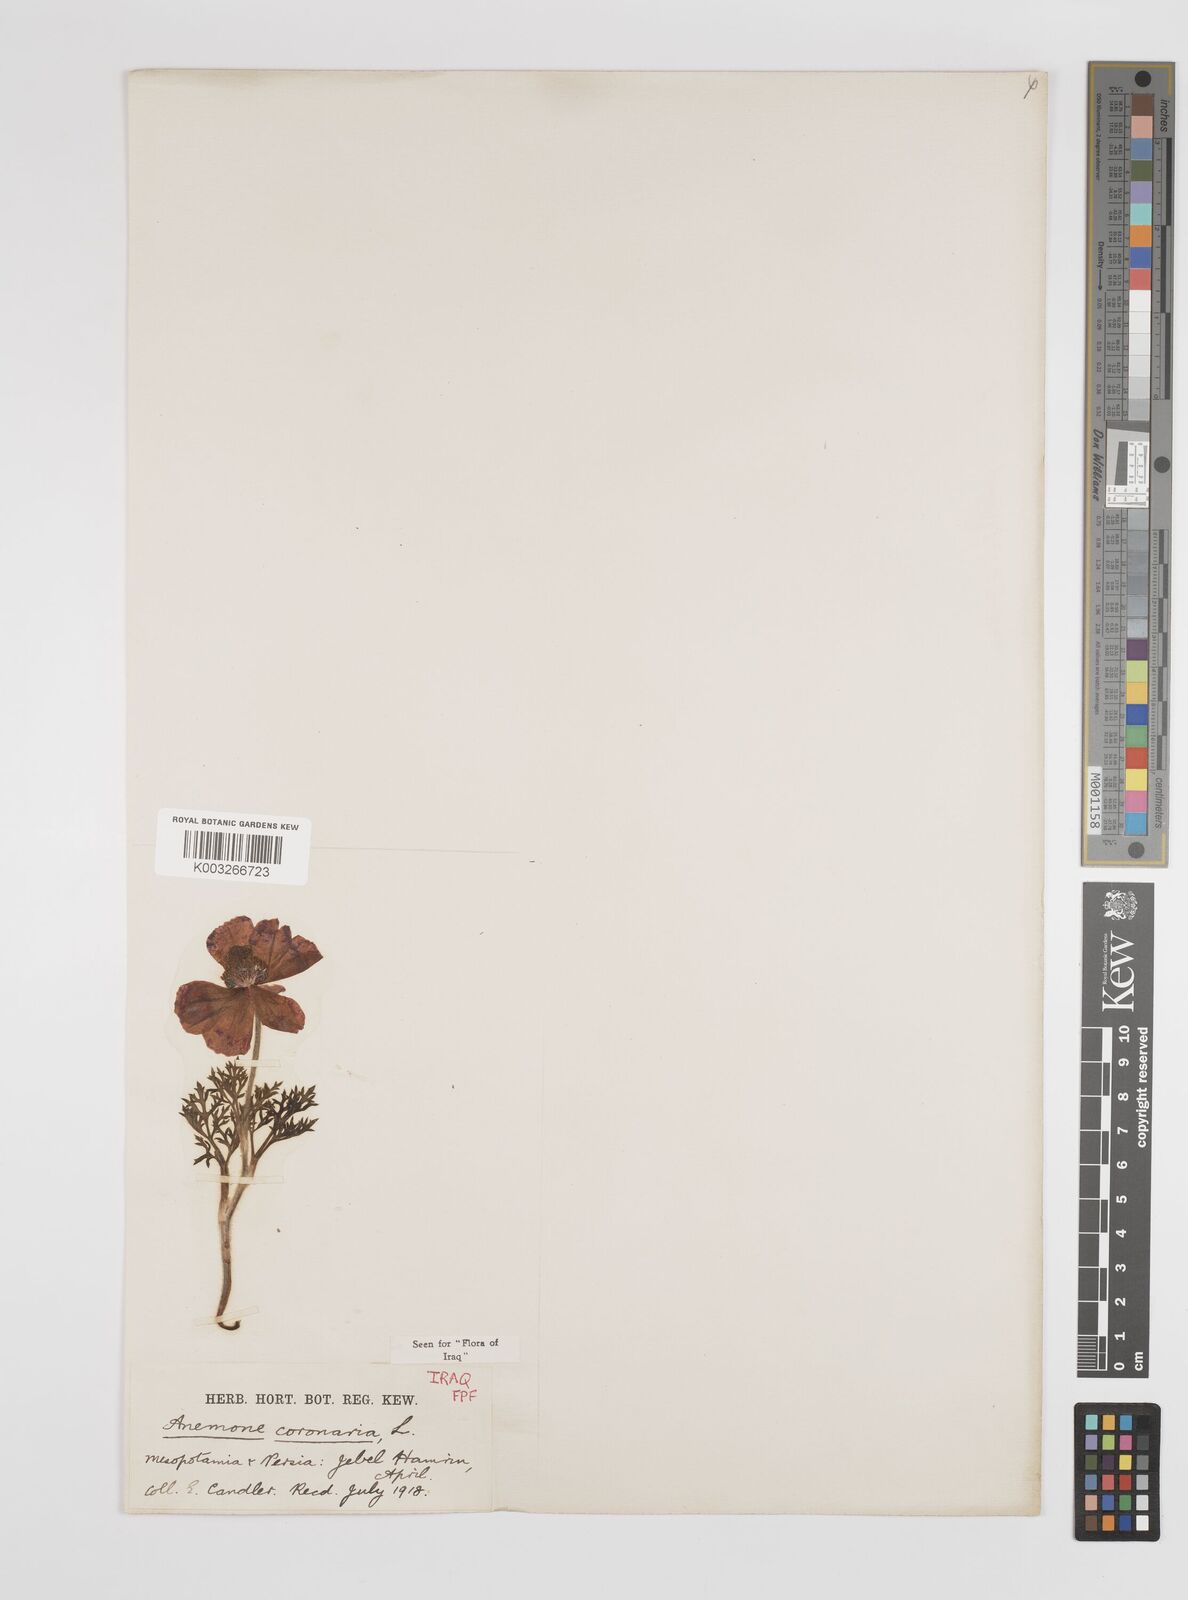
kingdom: Plantae
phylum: Tracheophyta
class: Magnoliopsida
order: Ranunculales
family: Ranunculaceae
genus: Anemone
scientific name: Anemone coronaria
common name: Poppy anemone
